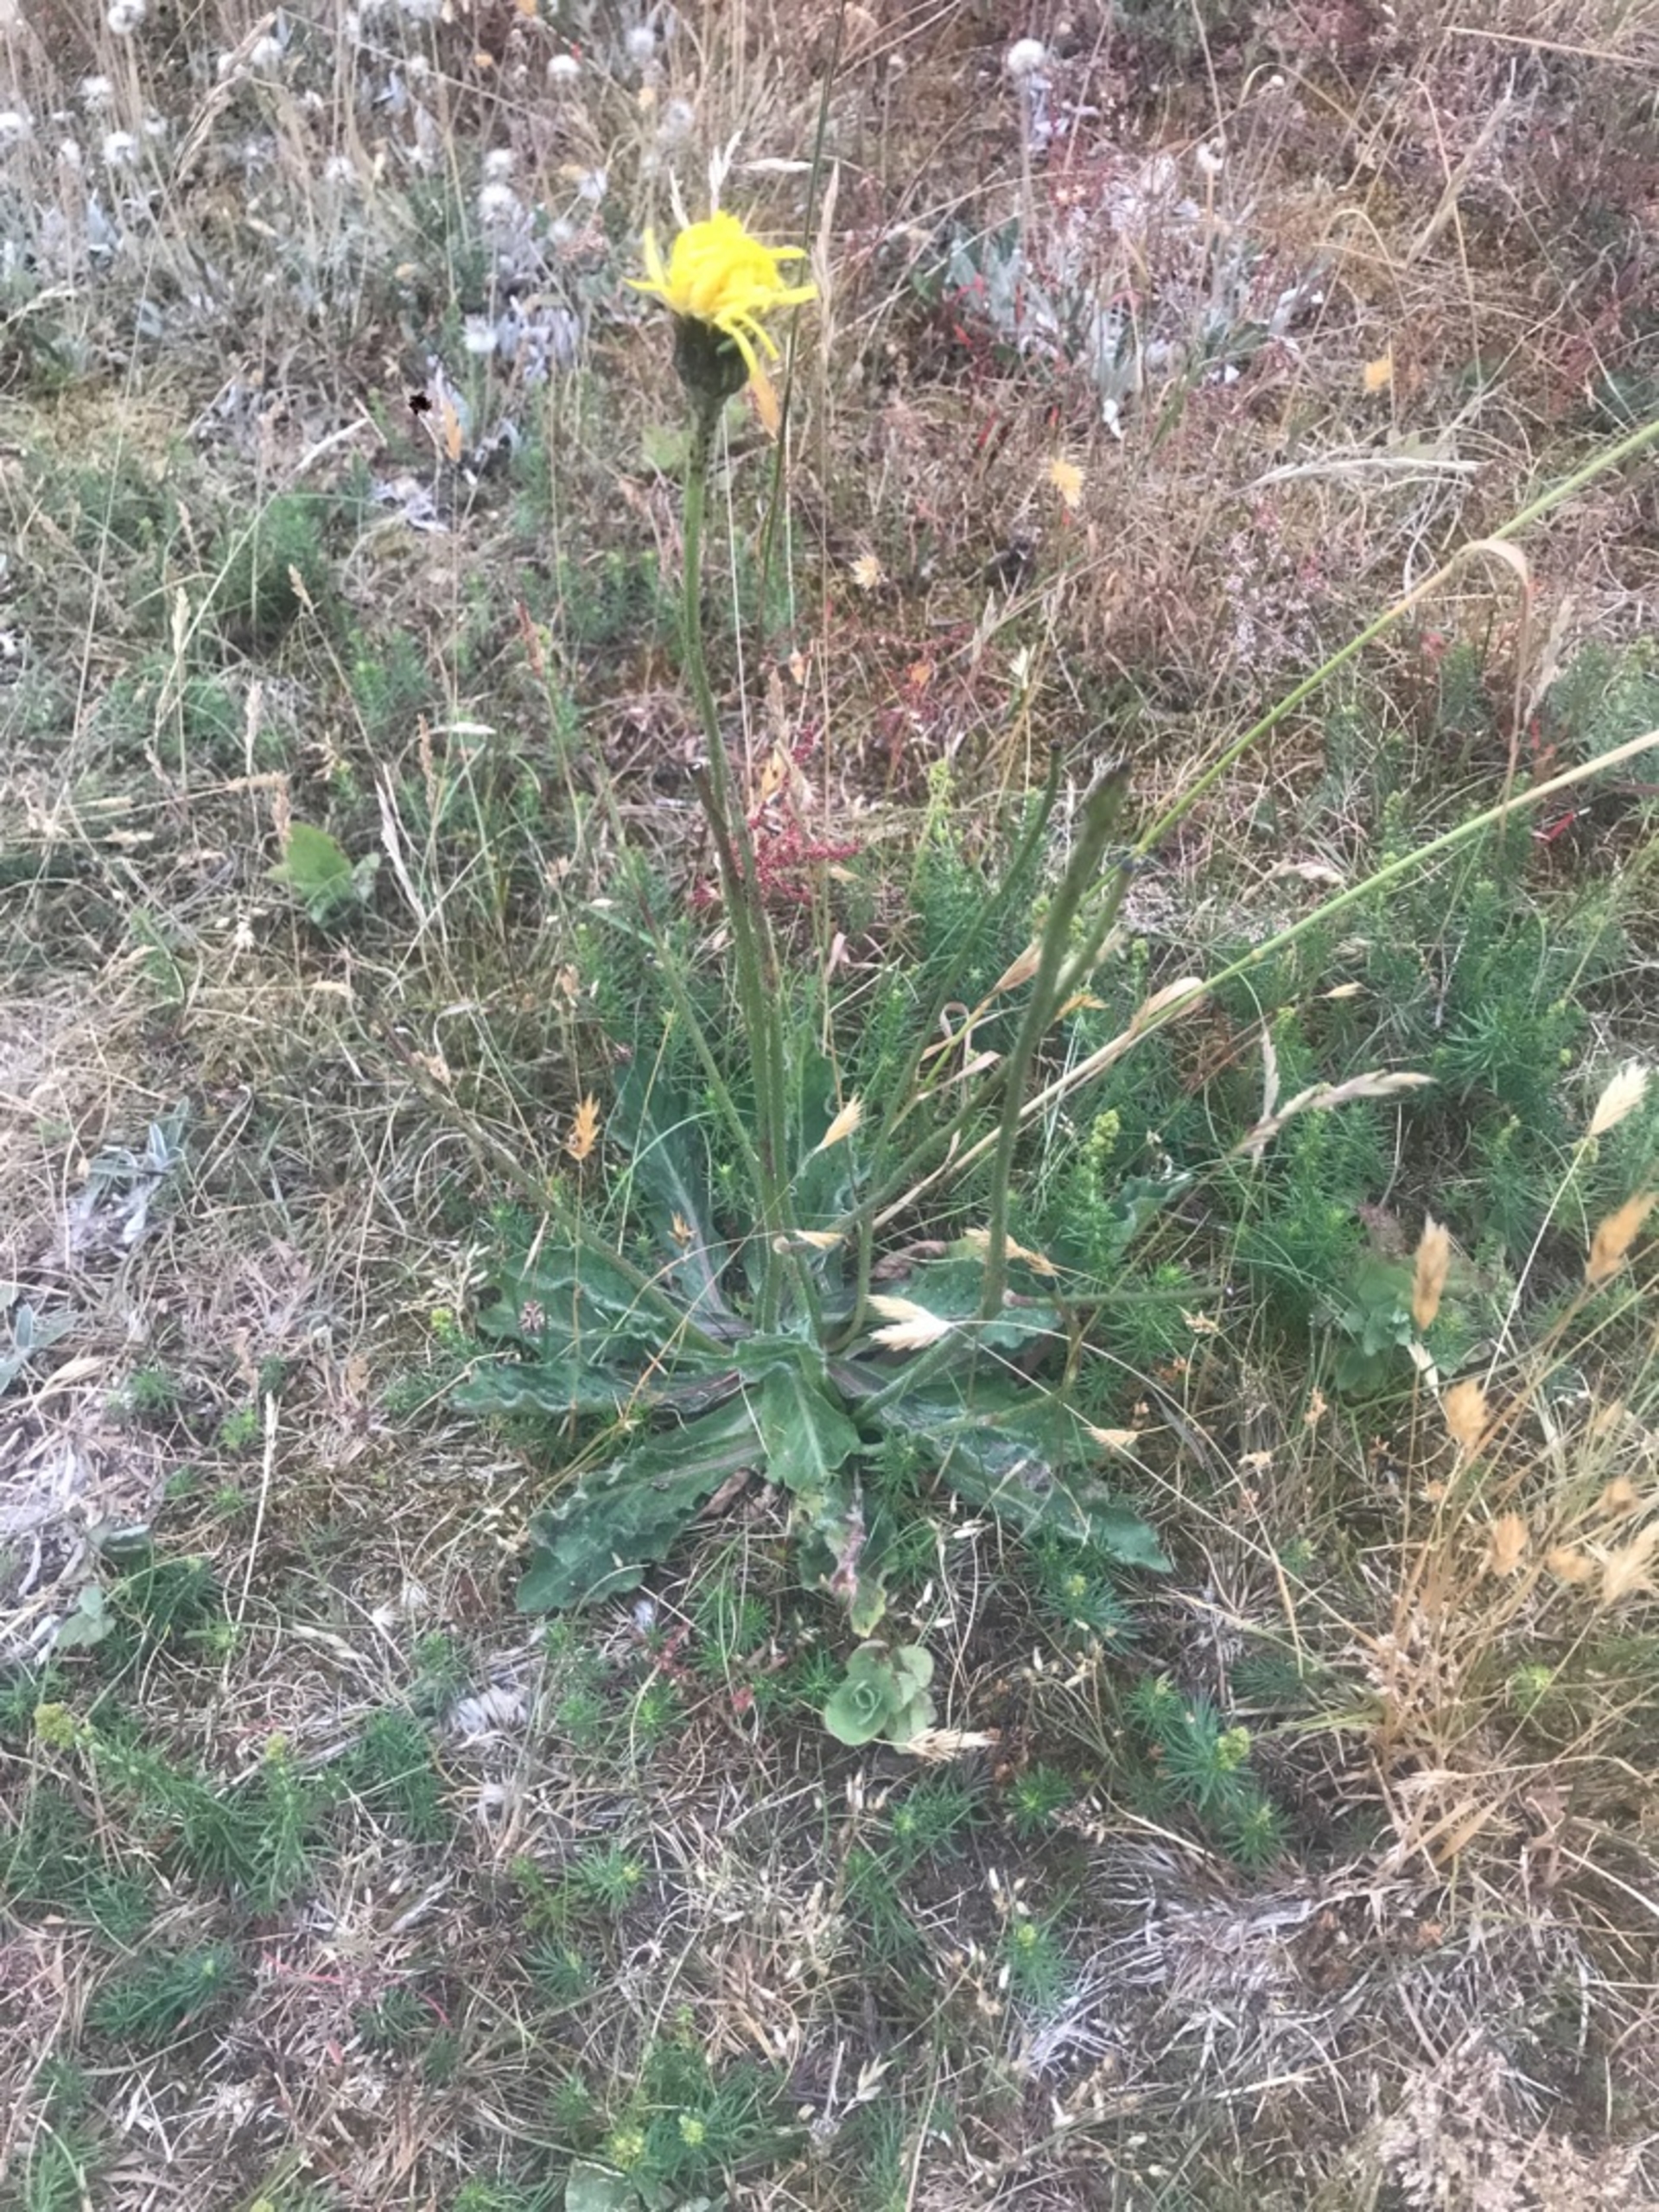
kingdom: Plantae
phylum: Tracheophyta
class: Magnoliopsida
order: Asterales
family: Asteraceae
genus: Trommsdorffia
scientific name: Trommsdorffia maculata
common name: Plettet kongepen
